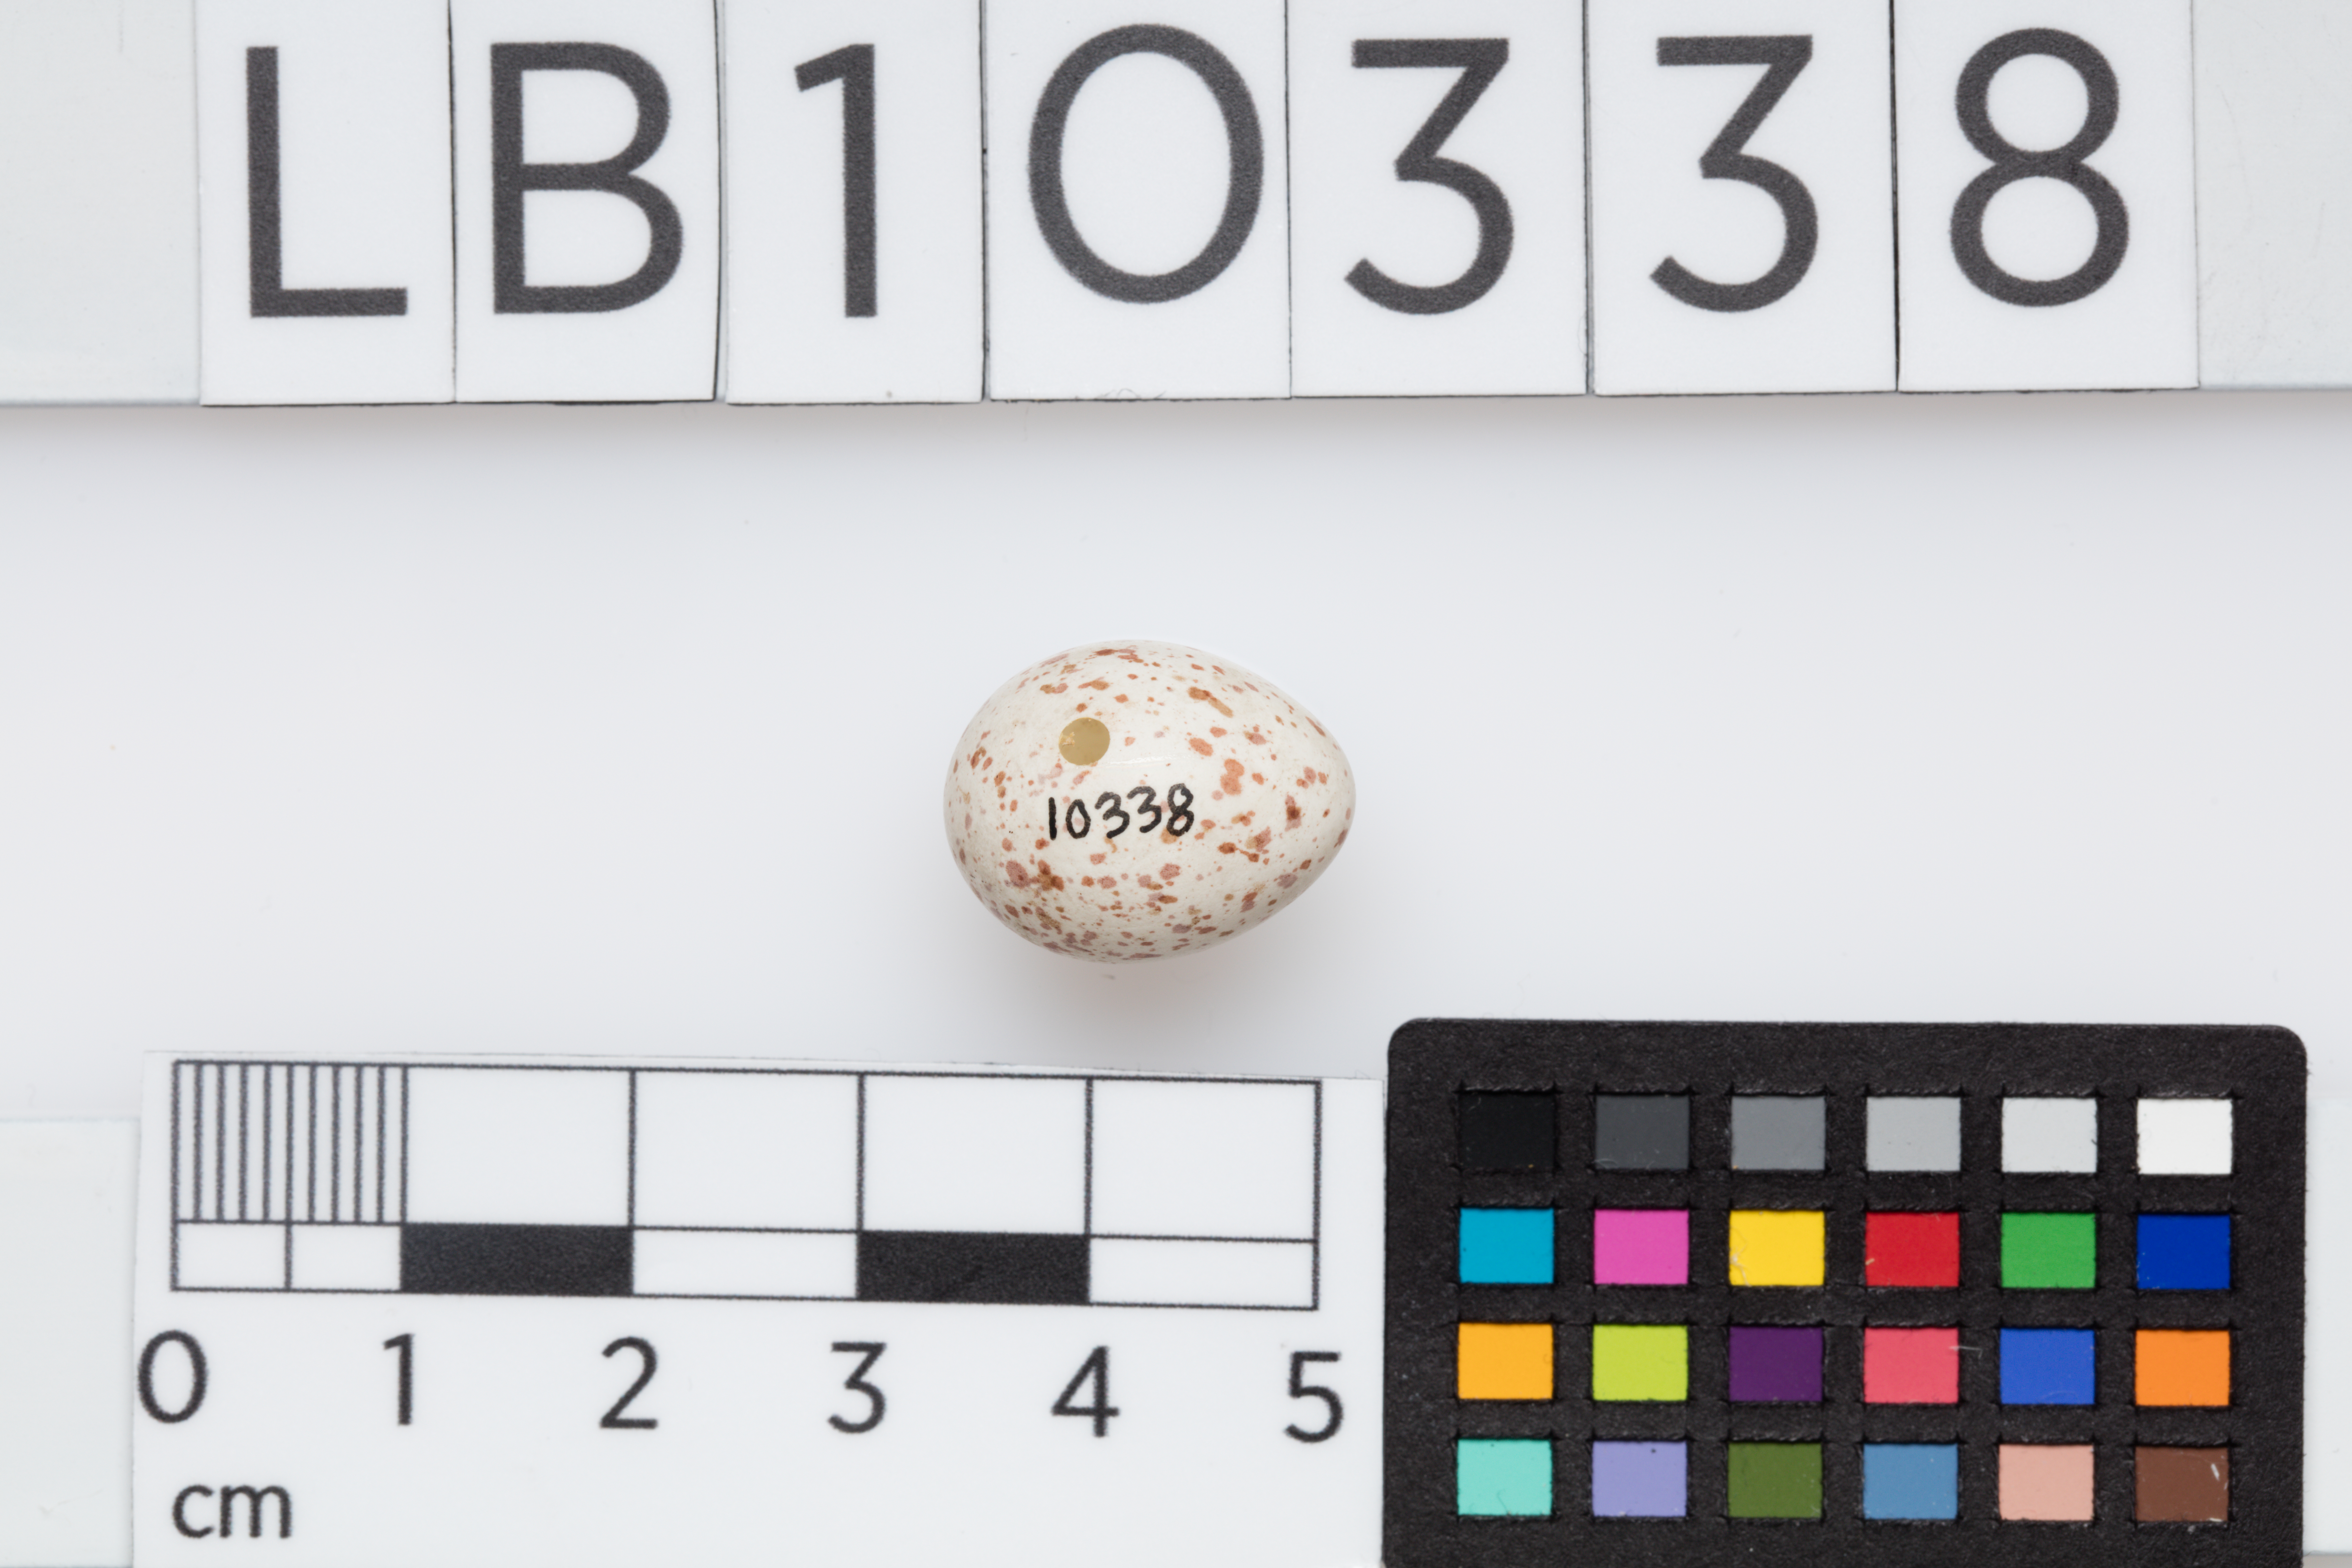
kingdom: Animalia
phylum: Chordata
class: Aves
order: Passeriformes
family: Paridae
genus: Parus
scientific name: Parus major
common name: Great tit
